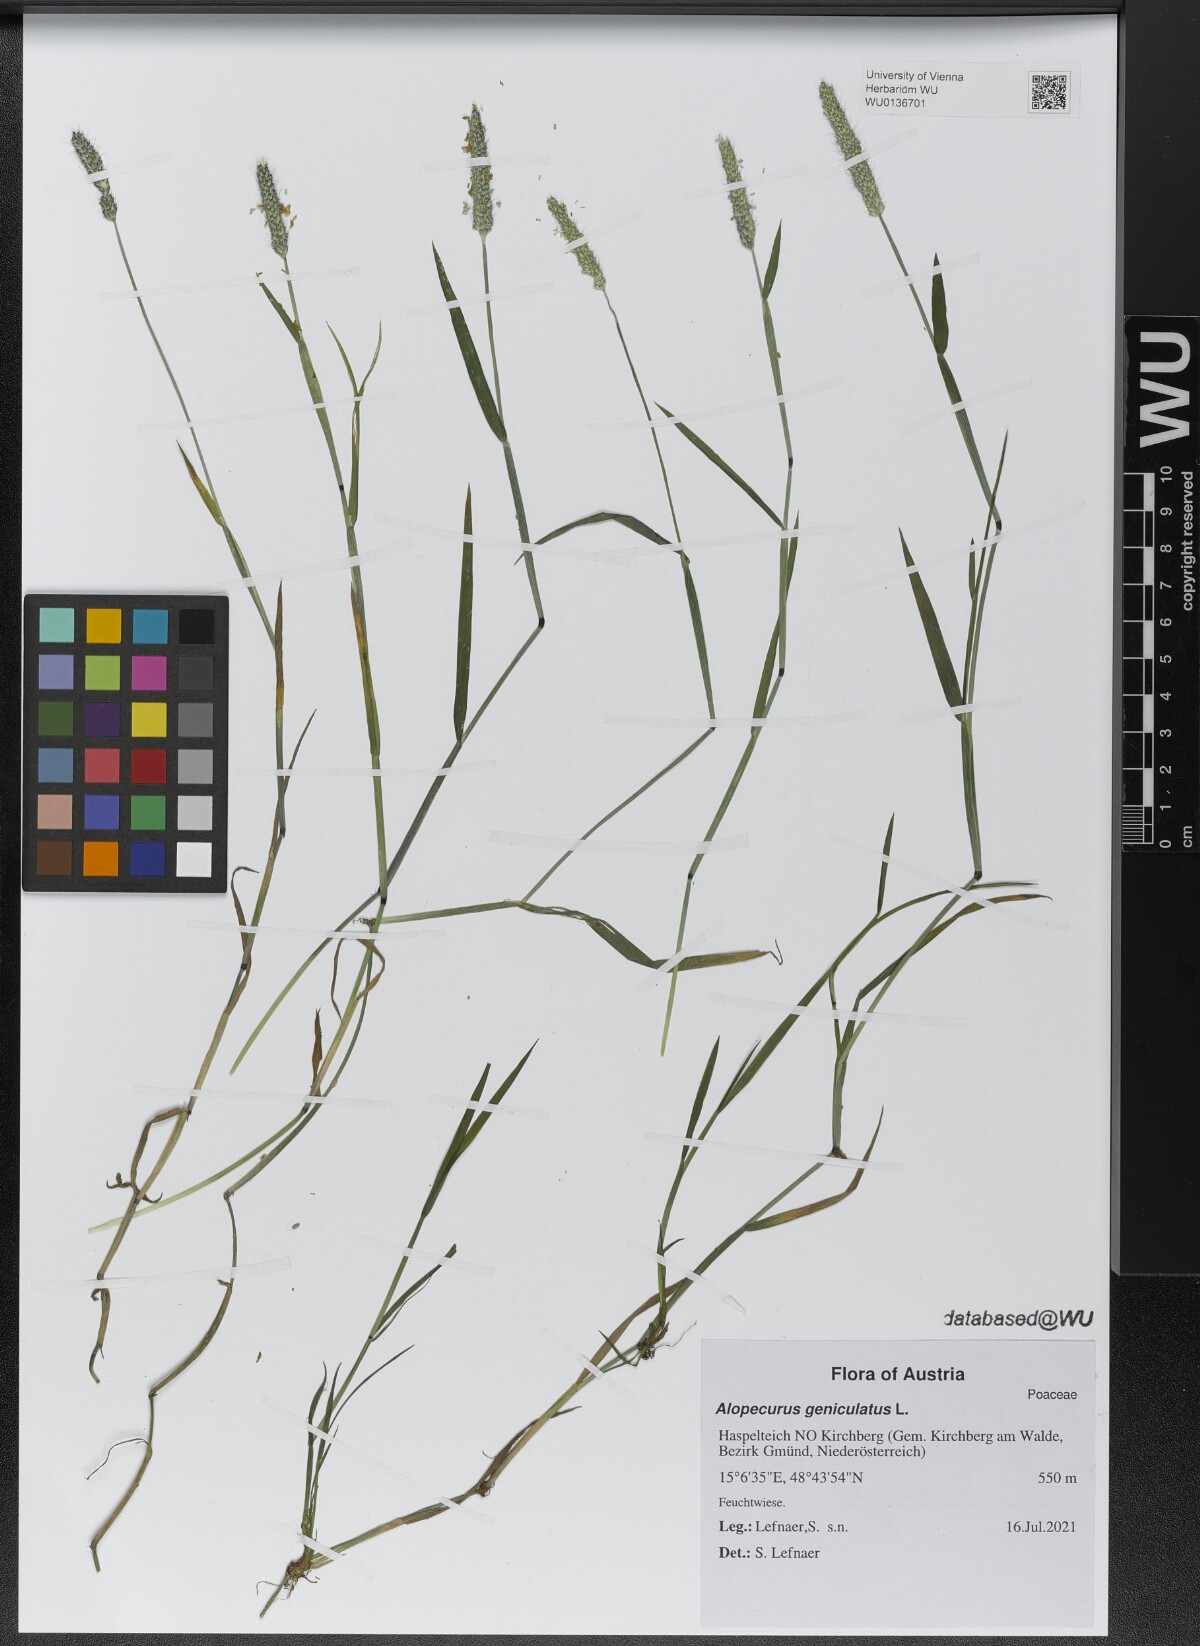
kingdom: Plantae
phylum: Tracheophyta
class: Liliopsida
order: Poales
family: Poaceae
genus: Alopecurus
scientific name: Alopecurus geniculatus
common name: Water foxtail
